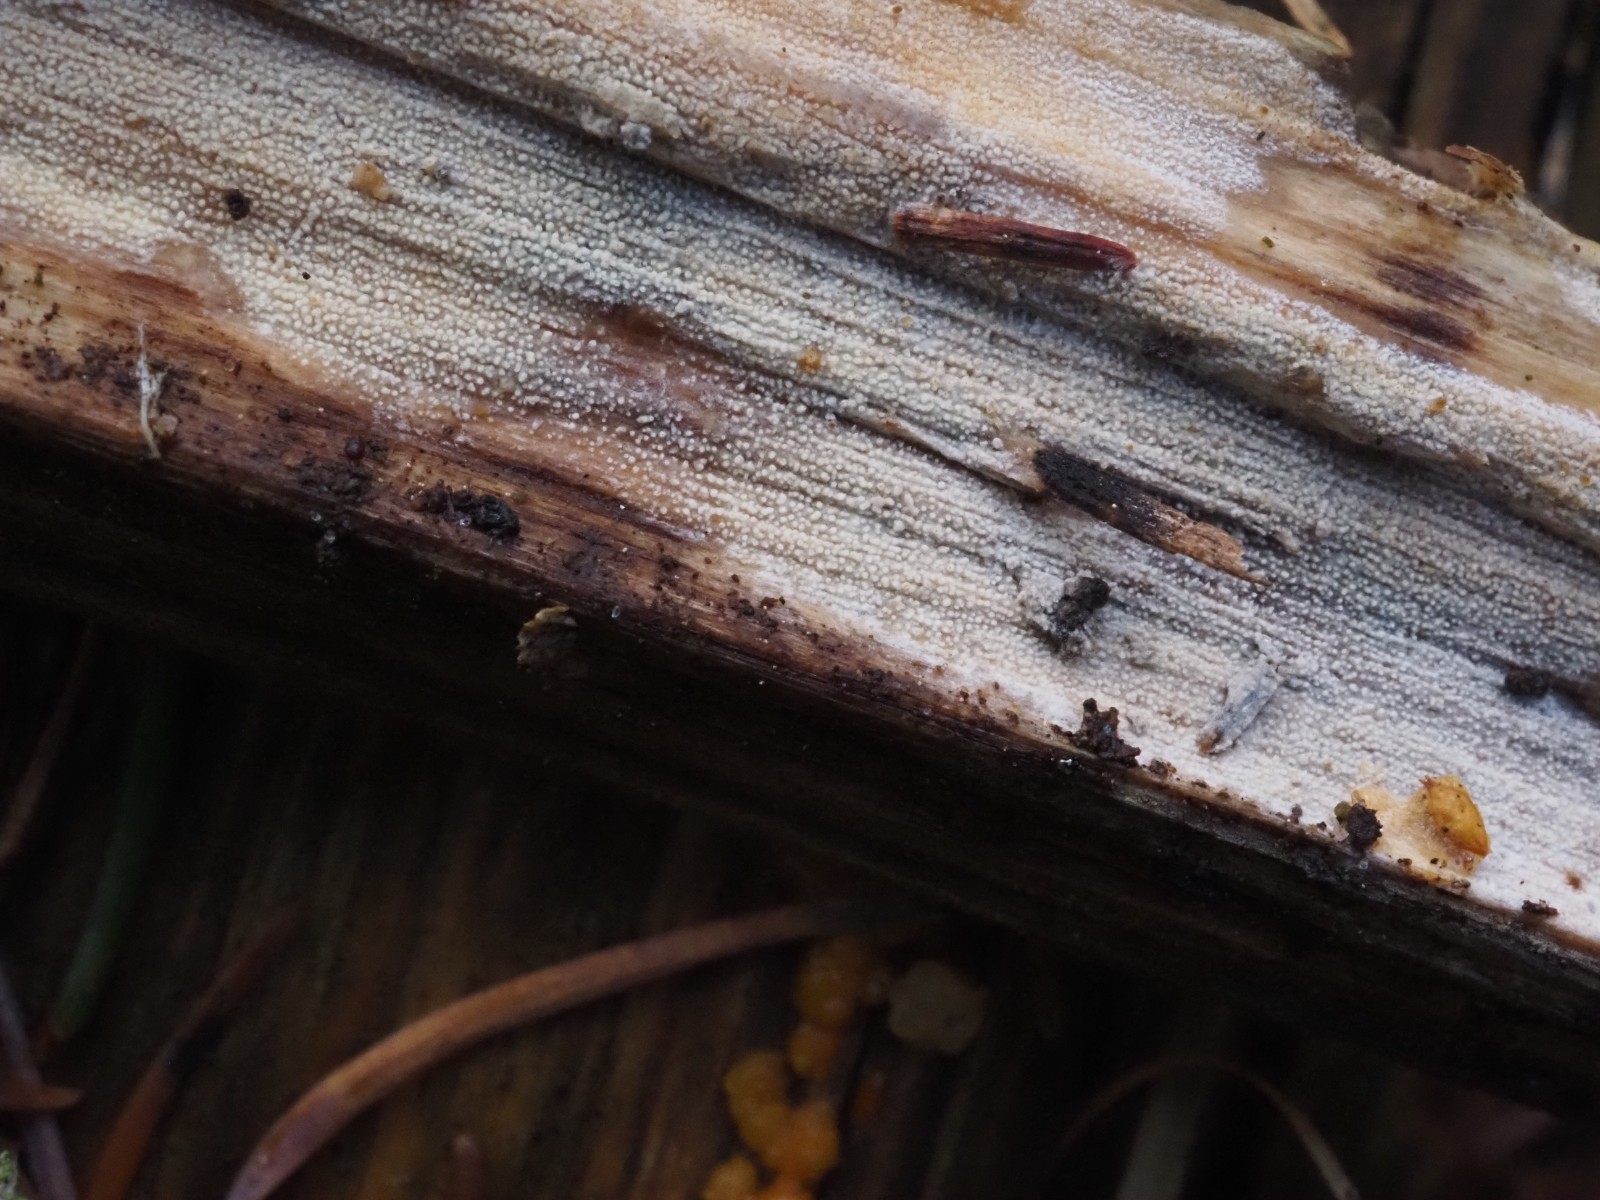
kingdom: Fungi
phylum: Basidiomycota
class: Agaricomycetes
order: Hymenochaetales
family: Rickenellaceae
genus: Resinicium
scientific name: Resinicium bicolor
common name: almindelig vokstand
